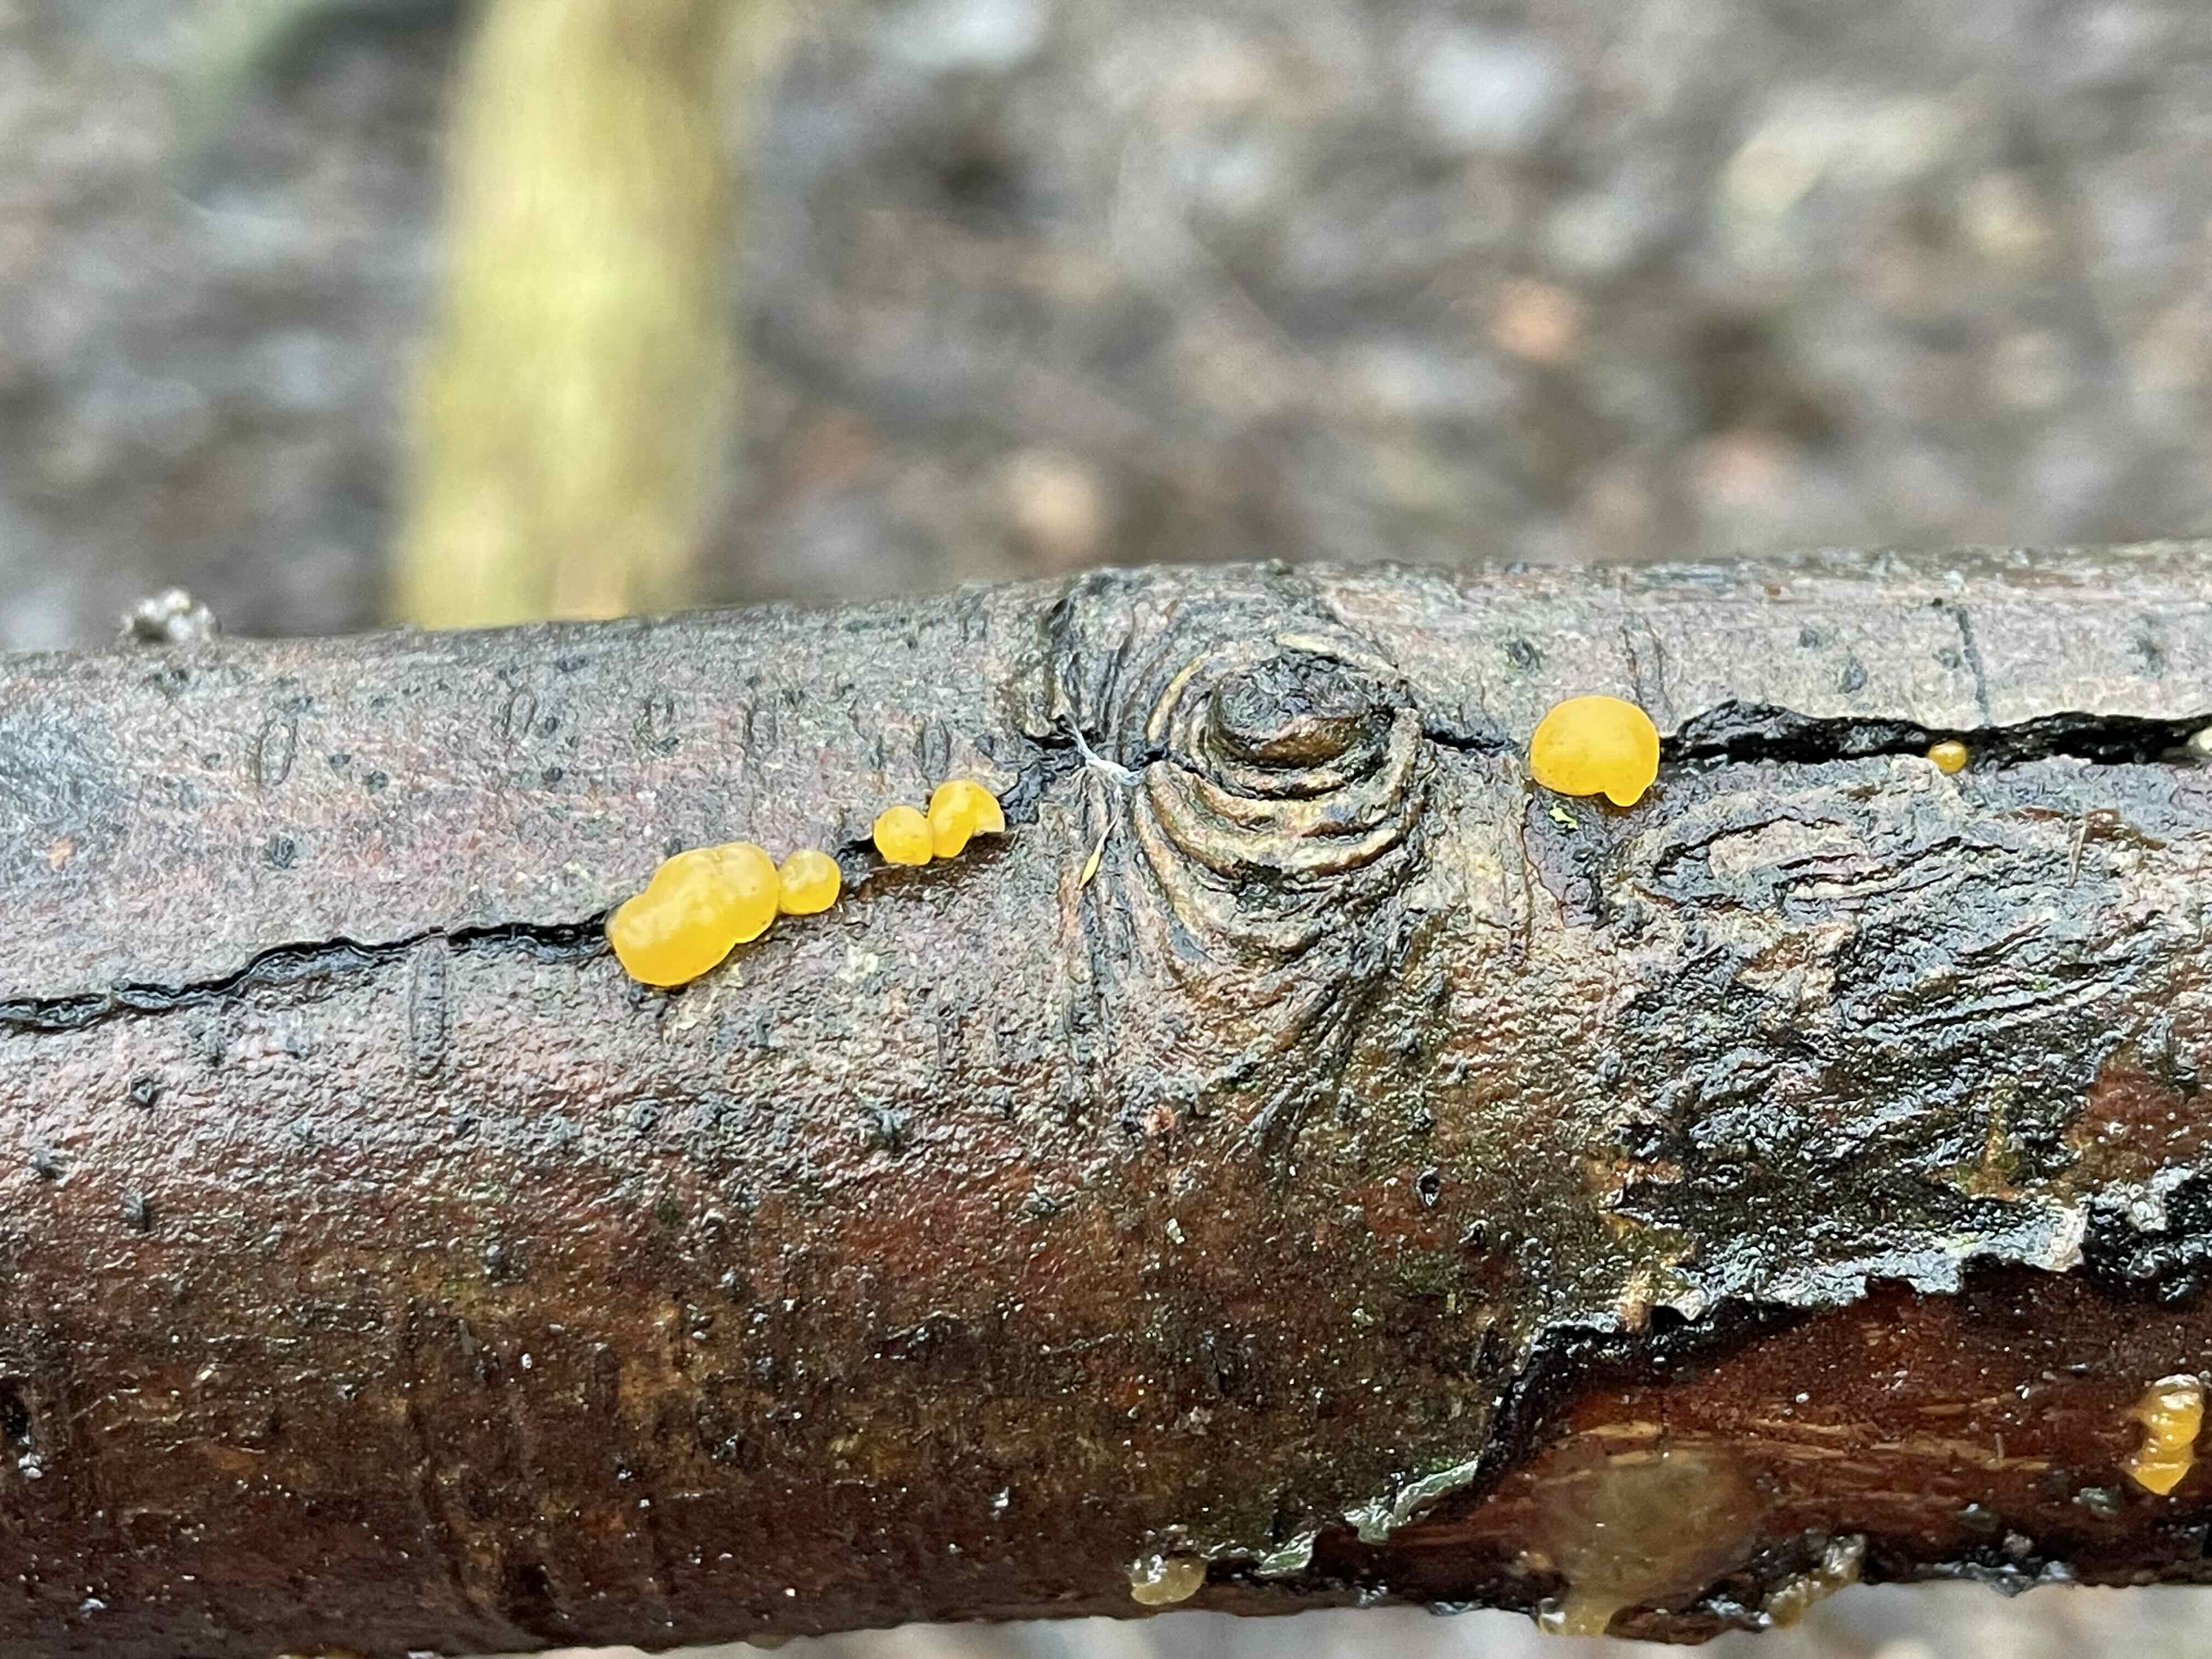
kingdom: Fungi
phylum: Basidiomycota
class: Dacrymycetes
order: Dacrymycetales
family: Dacrymycetaceae
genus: Dacrymyces
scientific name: Dacrymyces
